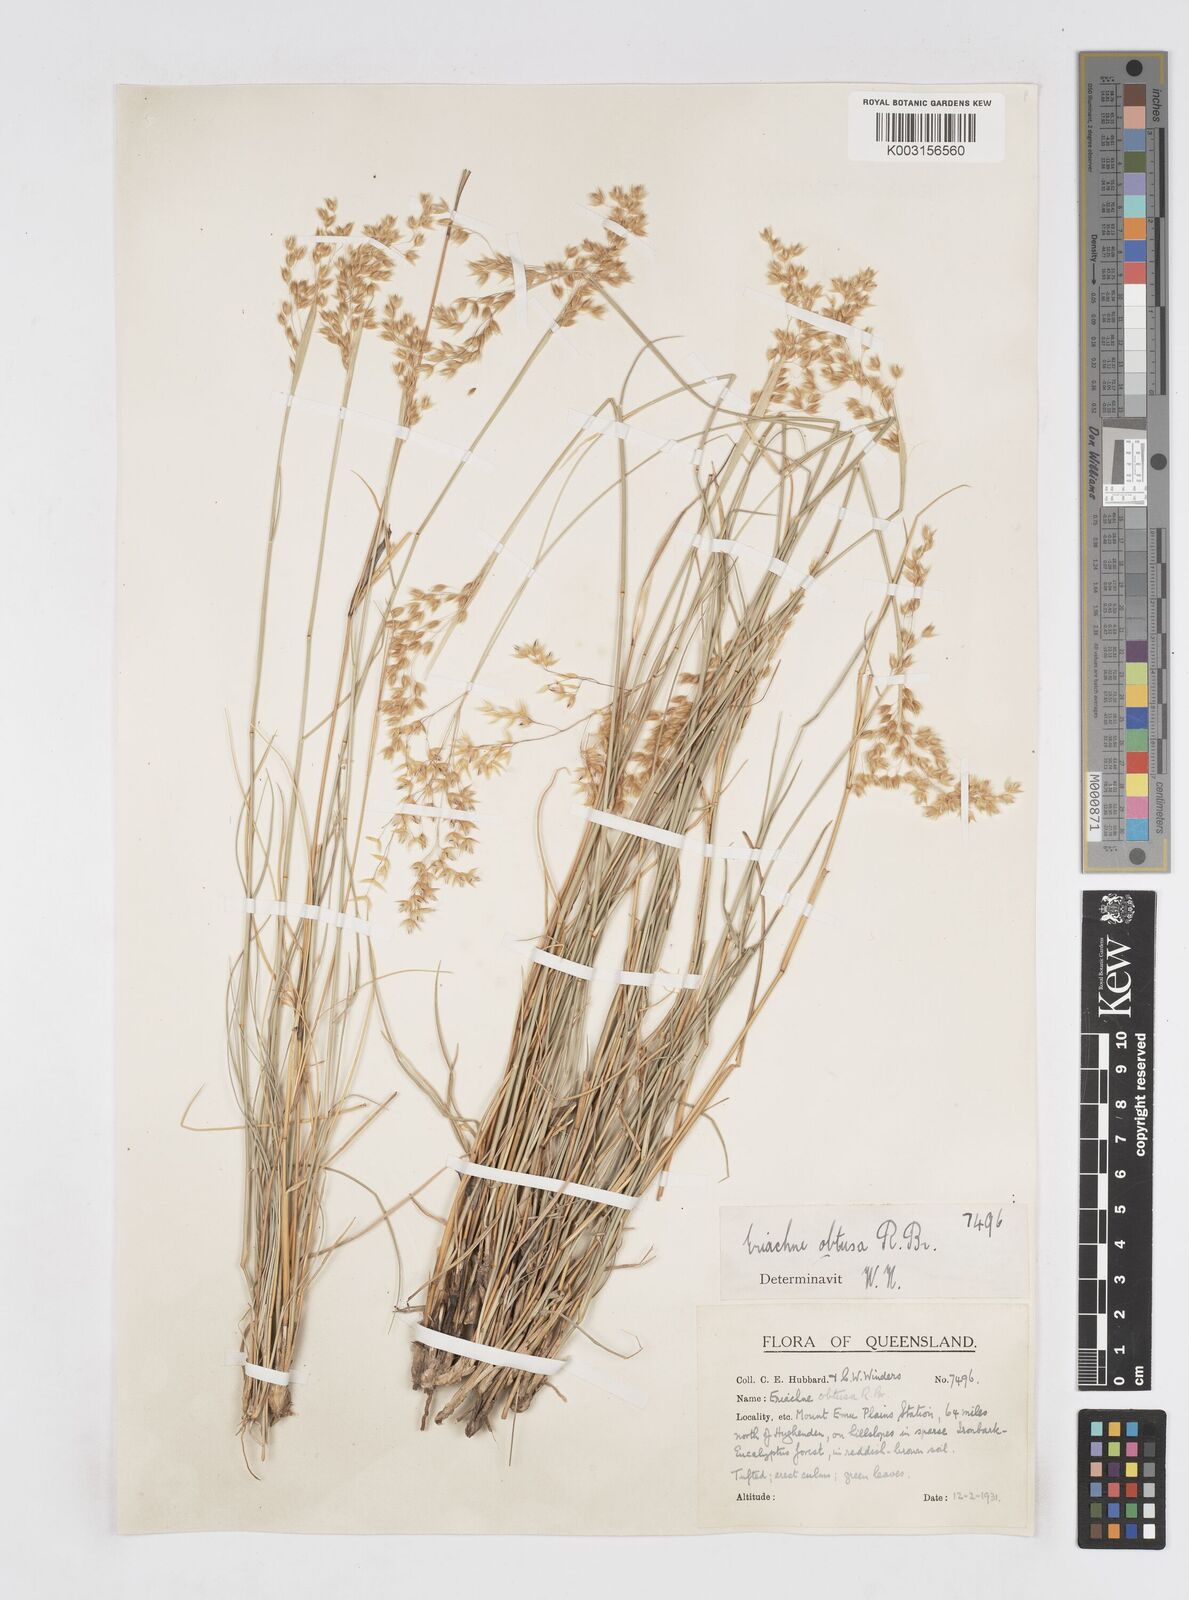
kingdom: Plantae
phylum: Tracheophyta
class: Liliopsida
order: Poales
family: Poaceae
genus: Eriachne
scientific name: Eriachne obtusa
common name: Northern wanderrie grass
